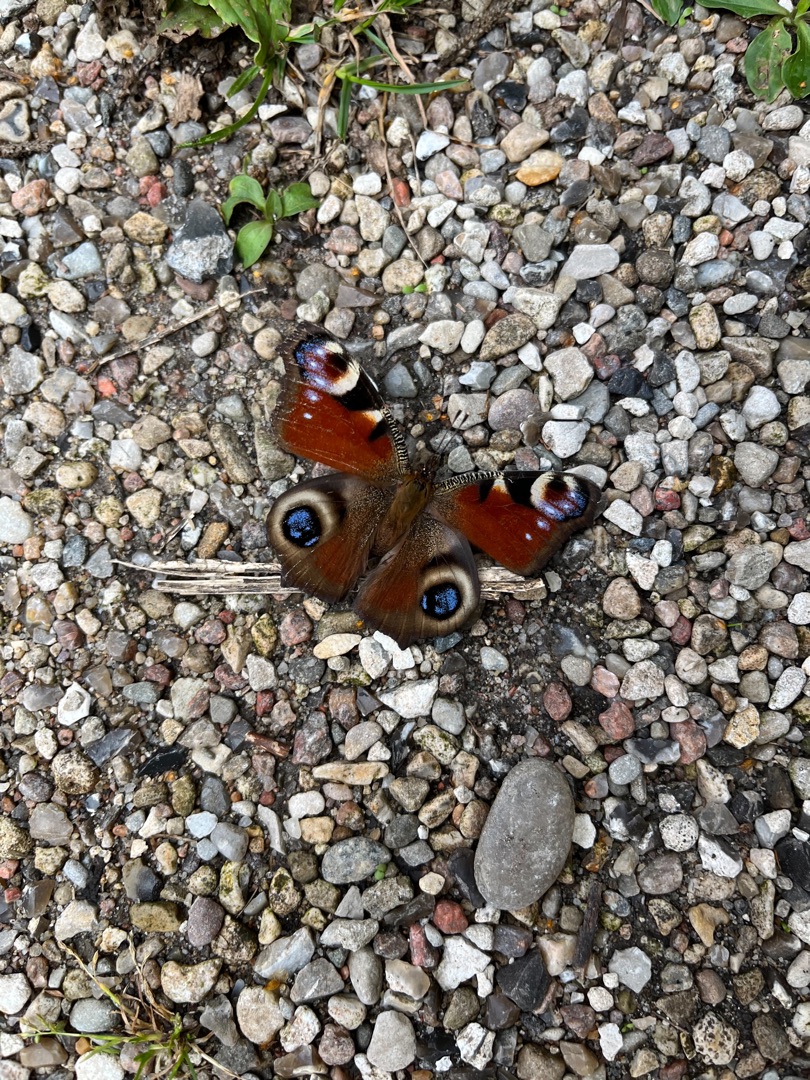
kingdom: Animalia
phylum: Arthropoda
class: Insecta
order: Lepidoptera
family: Nymphalidae
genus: Aglais
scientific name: Aglais io
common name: Dagpåfugleøje
